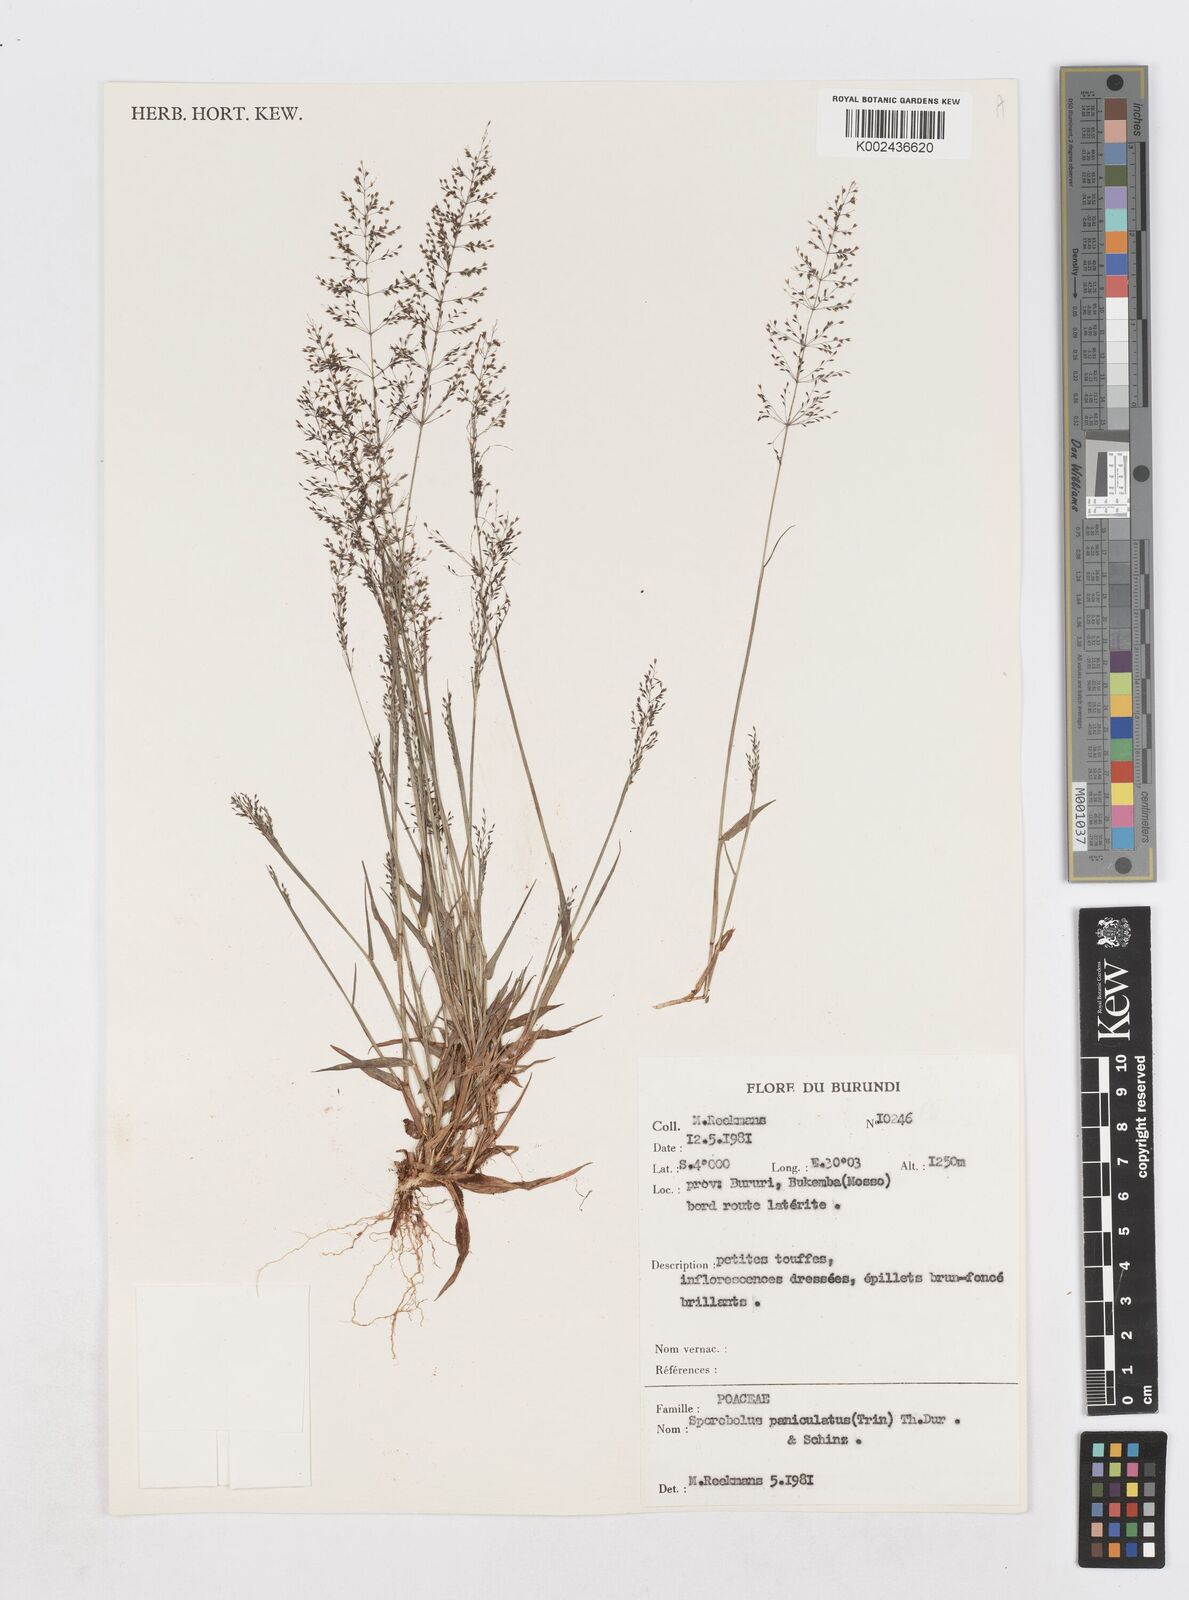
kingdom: Plantae
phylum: Tracheophyta
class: Liliopsida
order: Poales
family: Poaceae
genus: Sporobolus
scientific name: Sporobolus paniculatus
